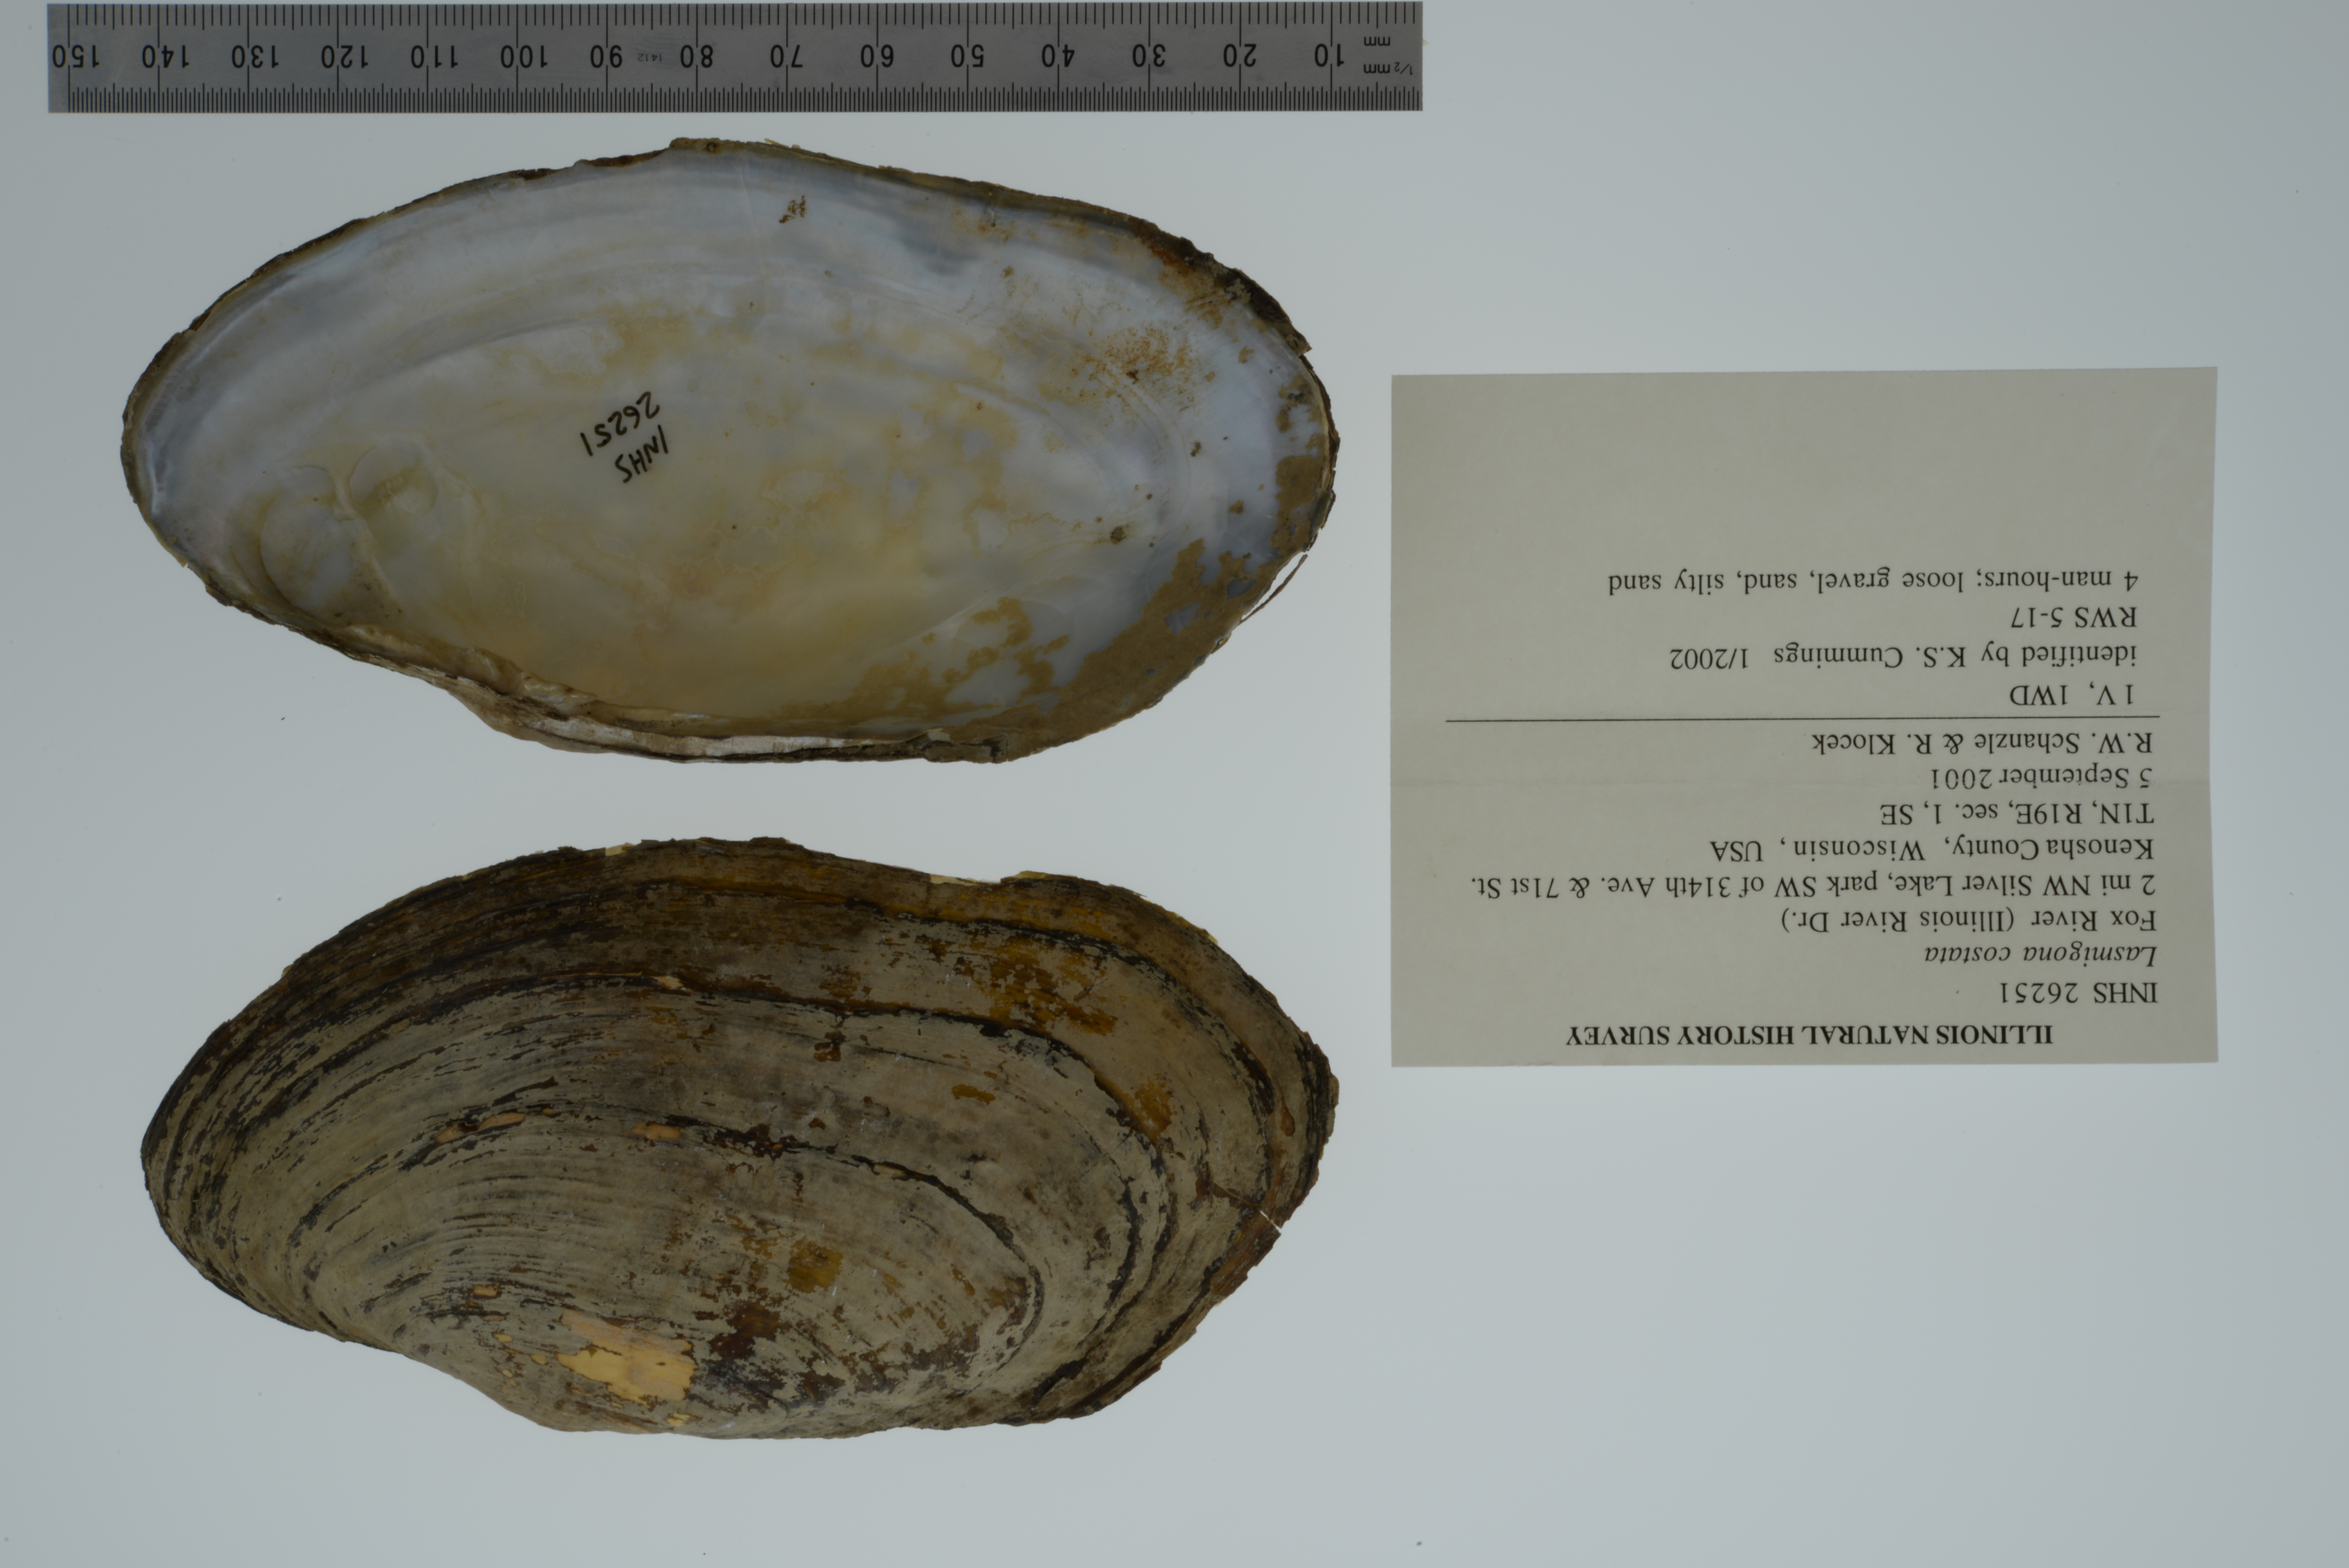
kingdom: Animalia
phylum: Mollusca
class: Bivalvia
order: Unionida
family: Unionidae
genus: Lasmigona
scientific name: Lasmigona costata
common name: Flutedshell
